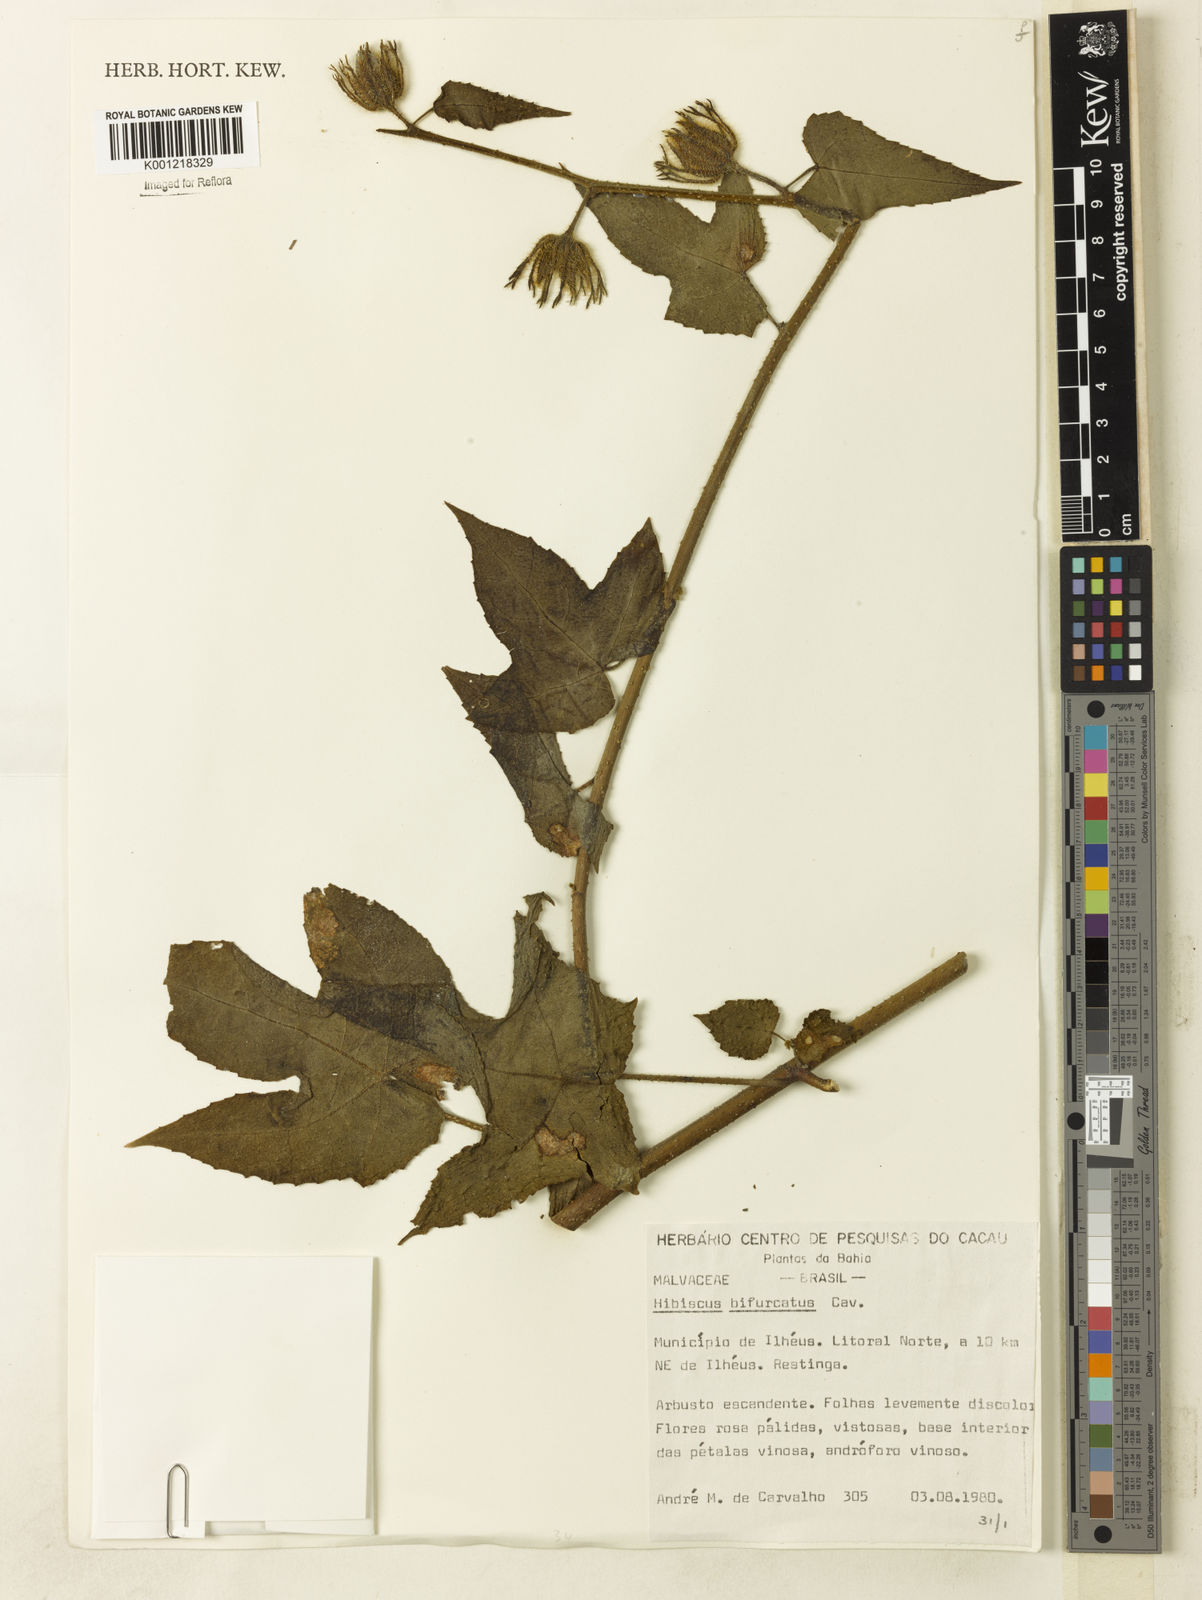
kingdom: Plantae
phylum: Tracheophyta
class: Magnoliopsida
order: Malvales
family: Malvaceae
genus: Hibiscus
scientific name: Hibiscus bifurcatus
